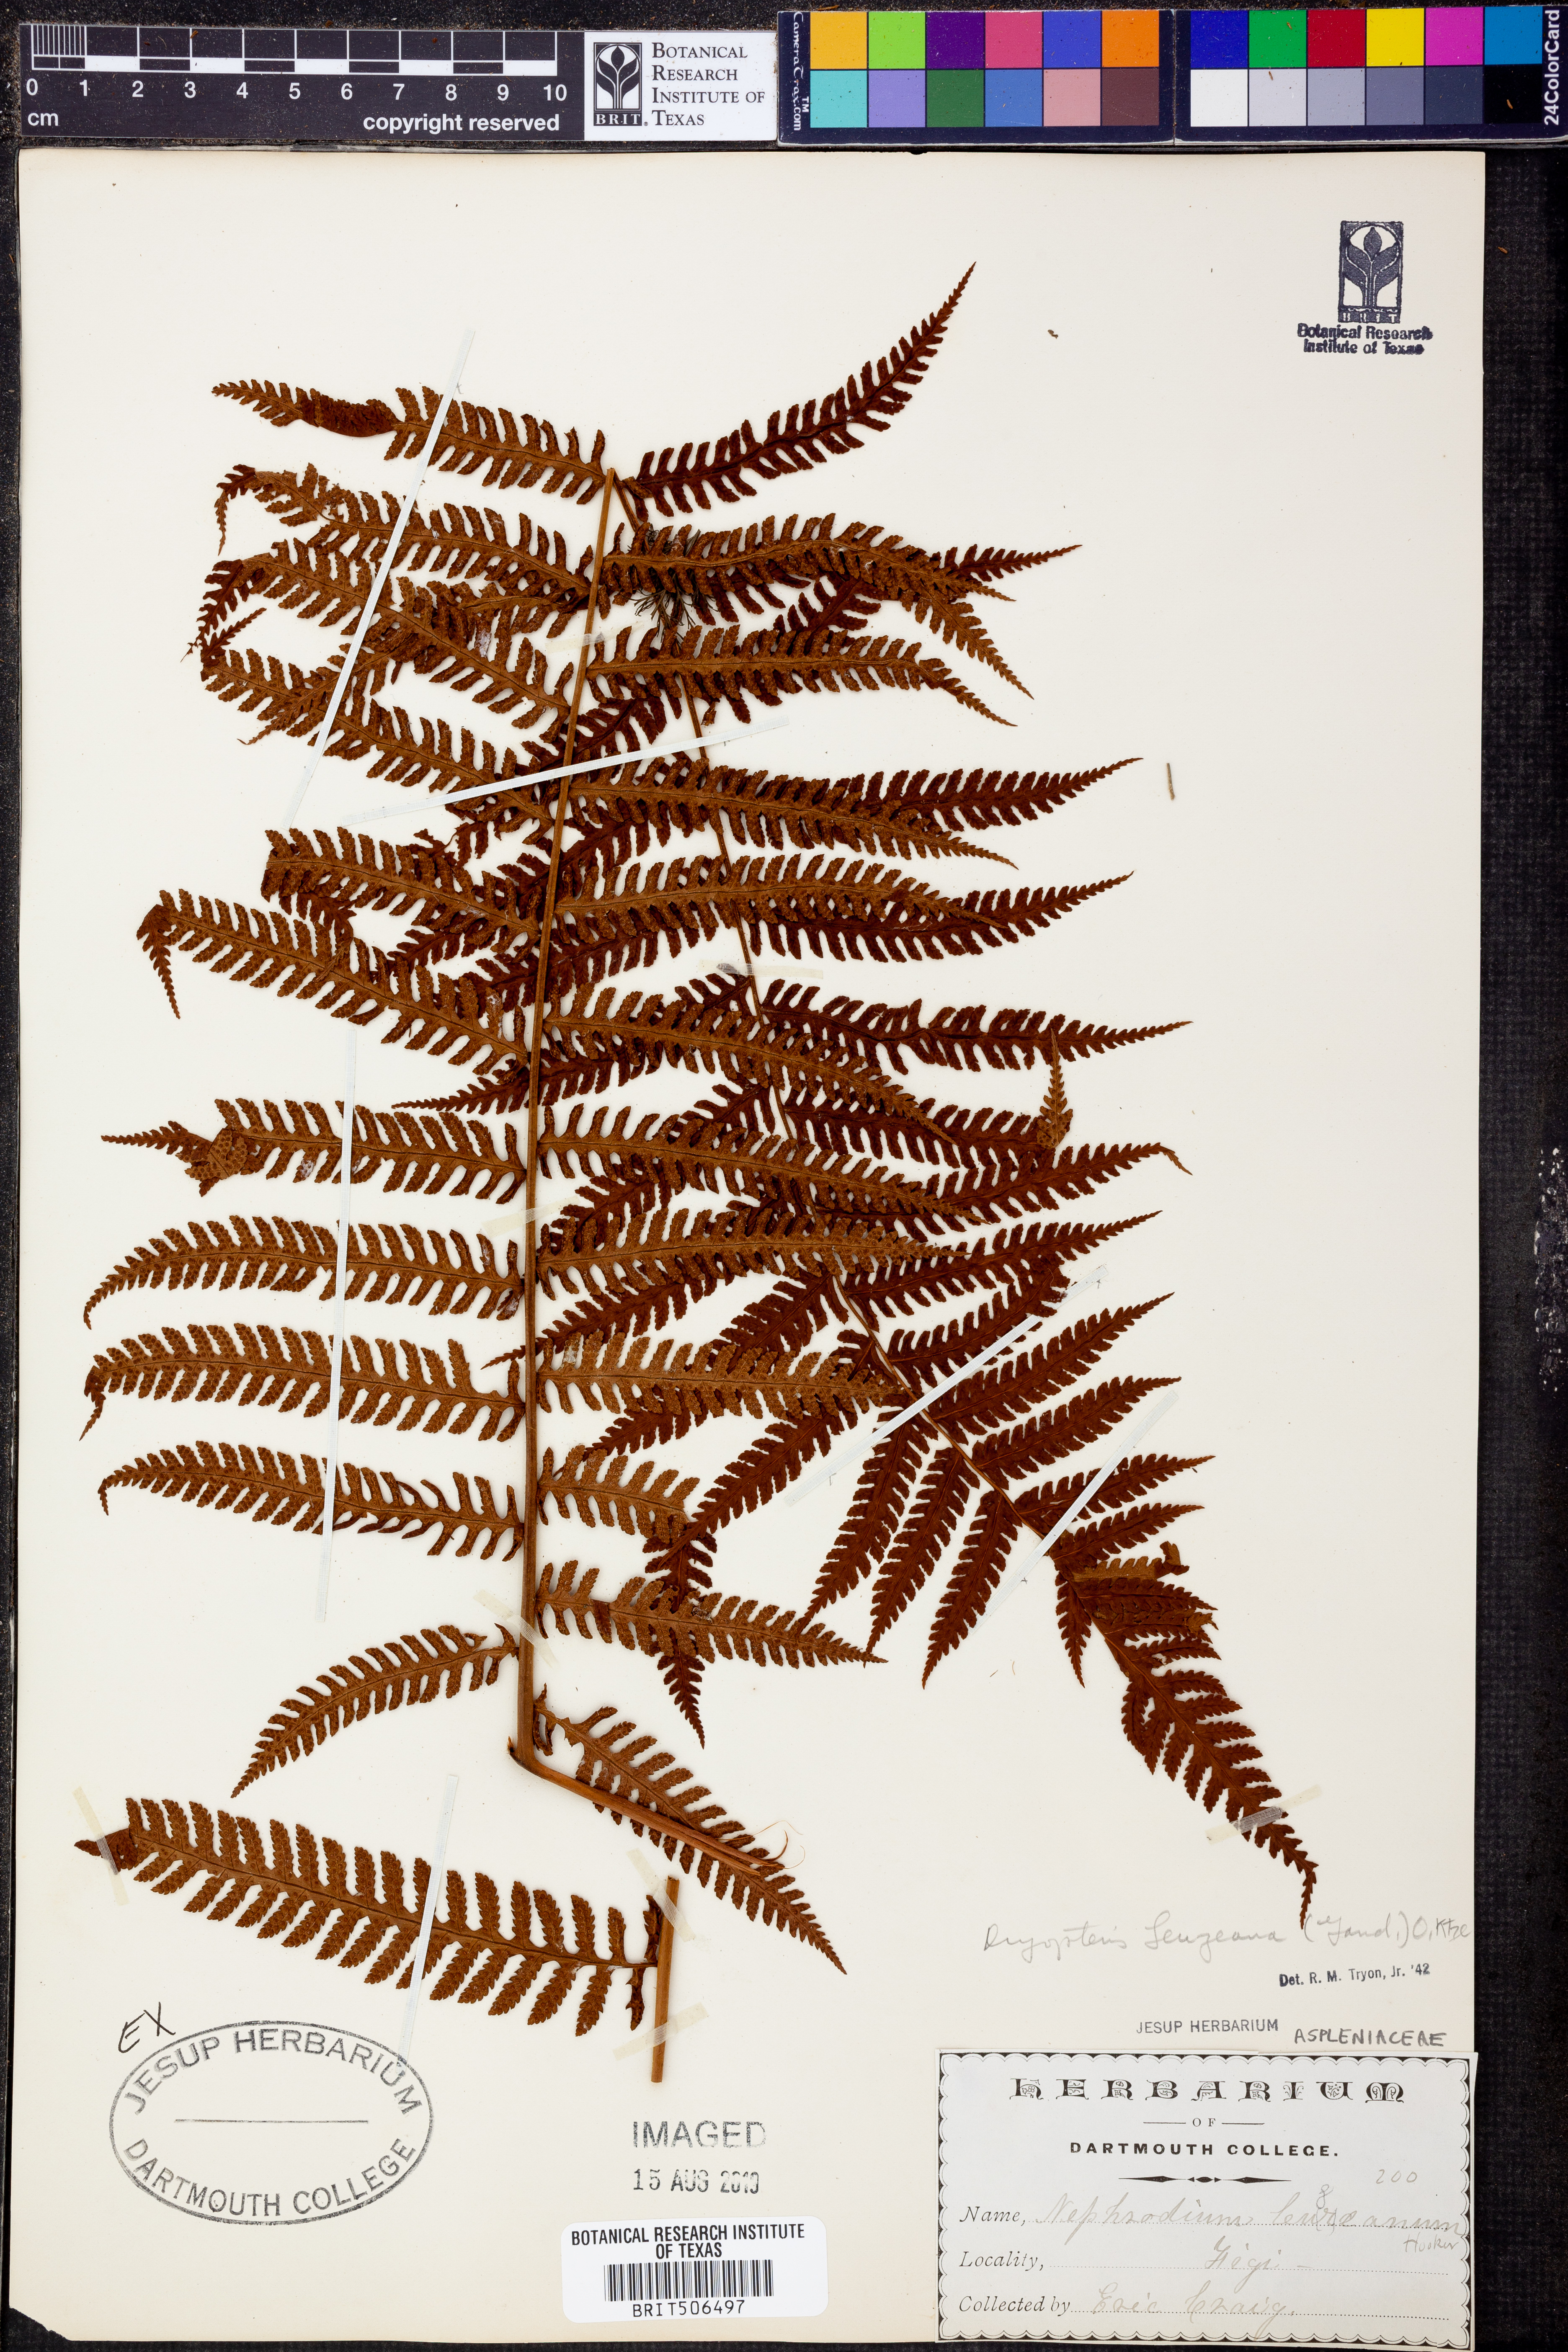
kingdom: Plantae
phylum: Tracheophyta
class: Polypodiopsida
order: Polypodiales
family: Dryopteridaceae
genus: Pleocnemia
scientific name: Pleocnemia leuzeana
